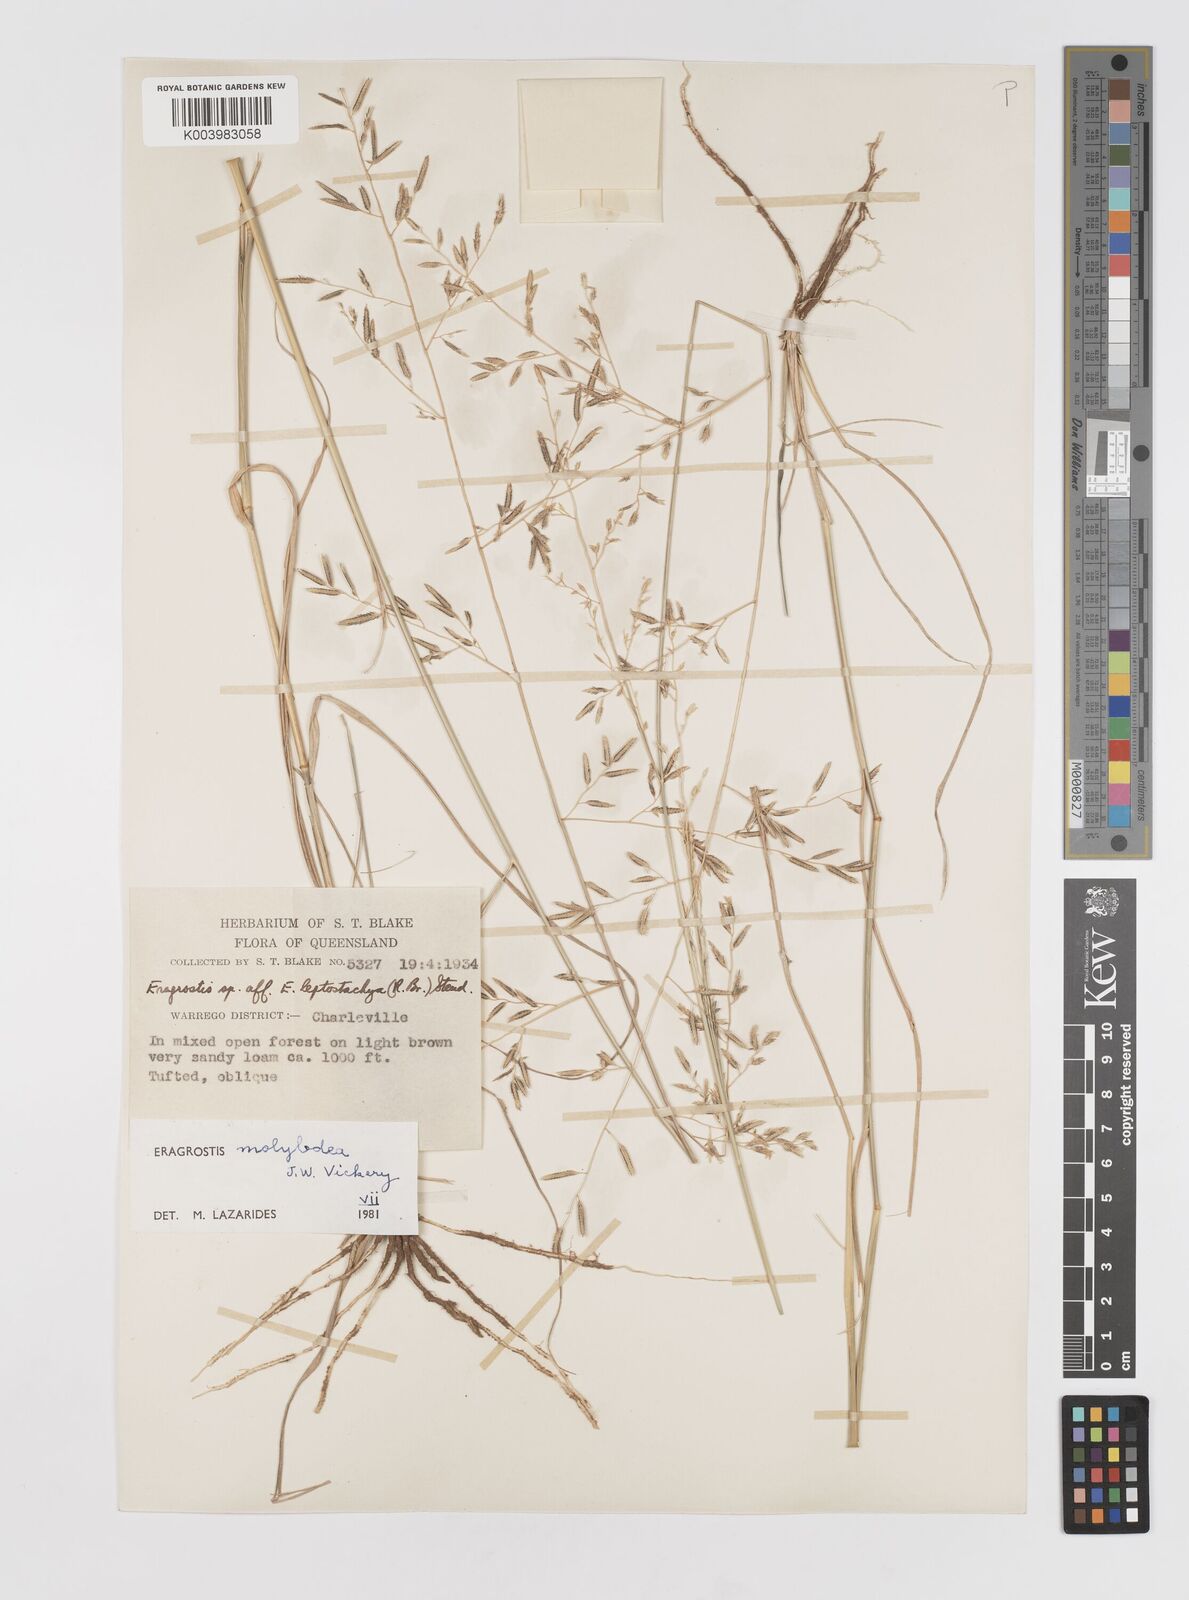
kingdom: Plantae
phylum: Tracheophyta
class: Liliopsida
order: Poales
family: Poaceae
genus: Eragrostis
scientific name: Eragrostis leptostachya
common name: Australian lovegrass
